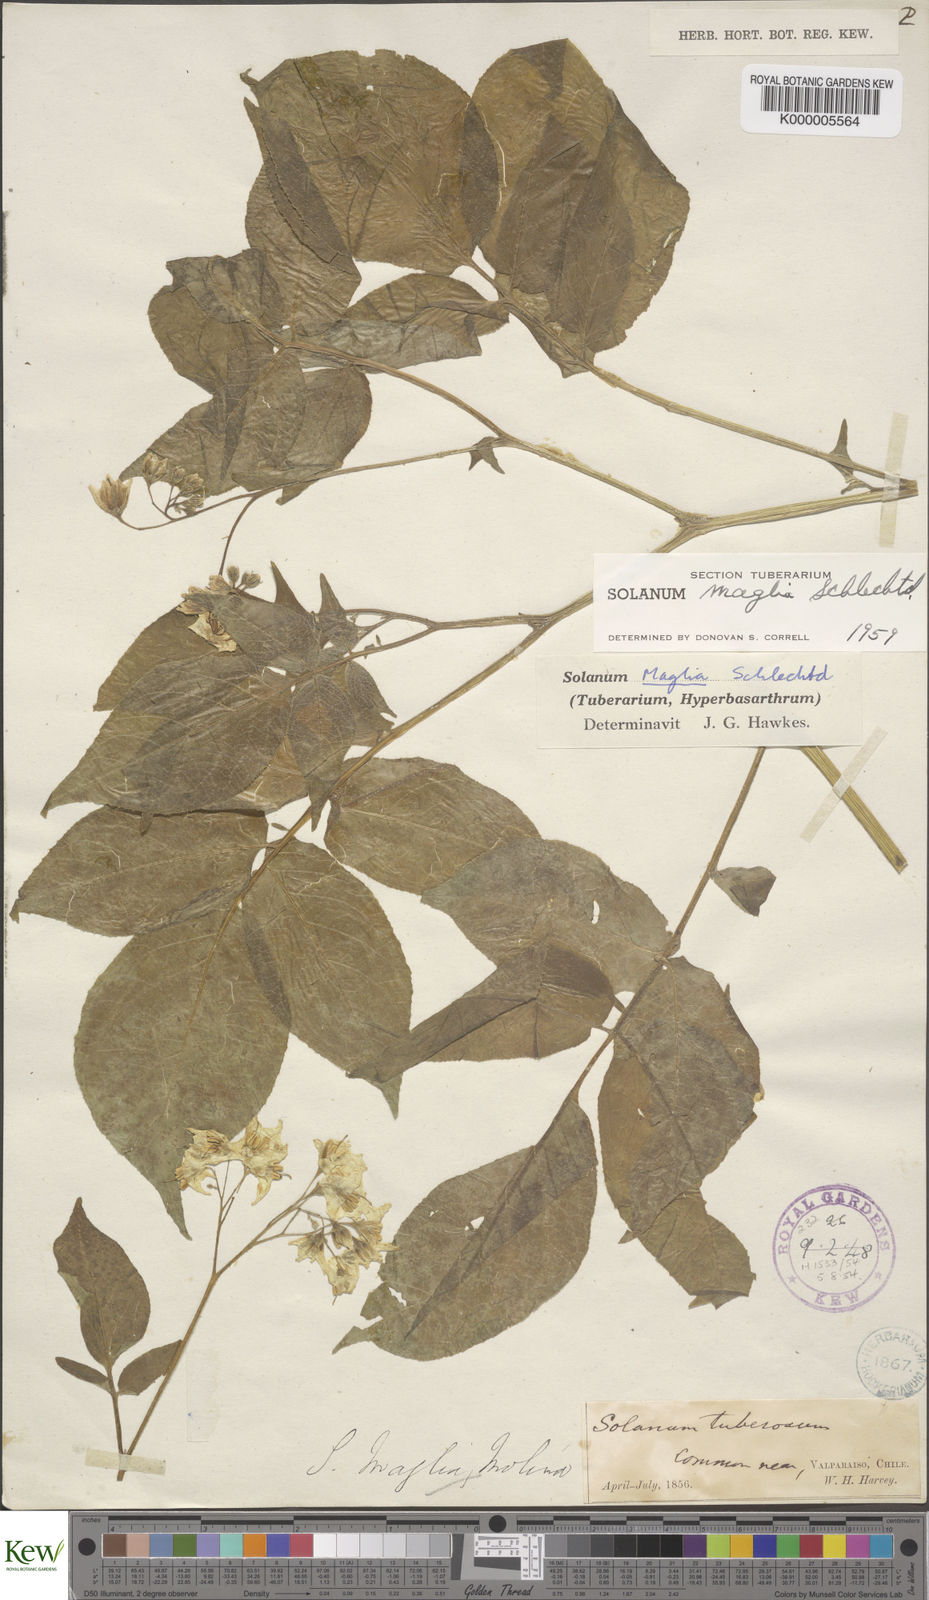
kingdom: Plantae
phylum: Tracheophyta
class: Magnoliopsida
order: Solanales
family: Solanaceae
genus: Solanum
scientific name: Solanum maglia
